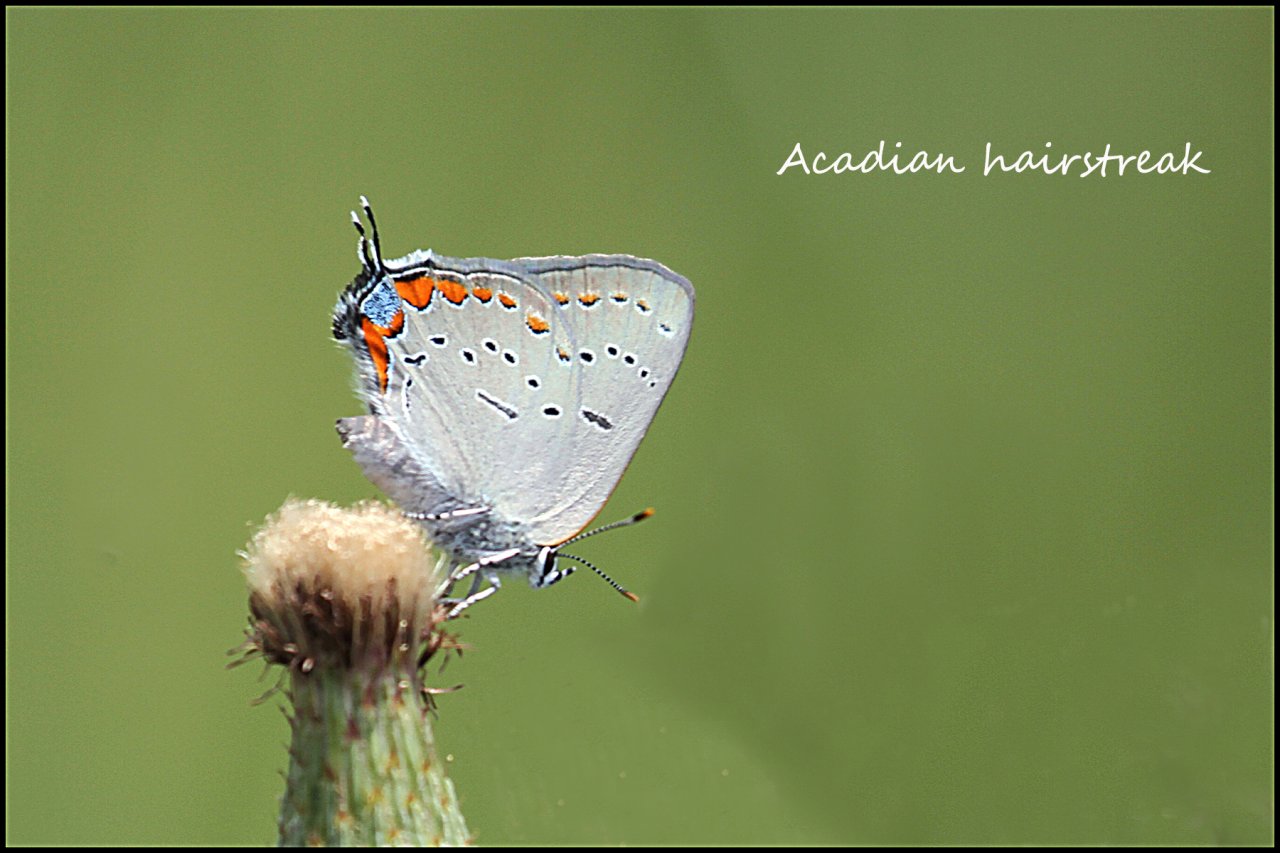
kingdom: Animalia
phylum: Arthropoda
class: Insecta
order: Lepidoptera
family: Lycaenidae
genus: Strymon
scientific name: Strymon acadica
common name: Acadian Hairstreak
